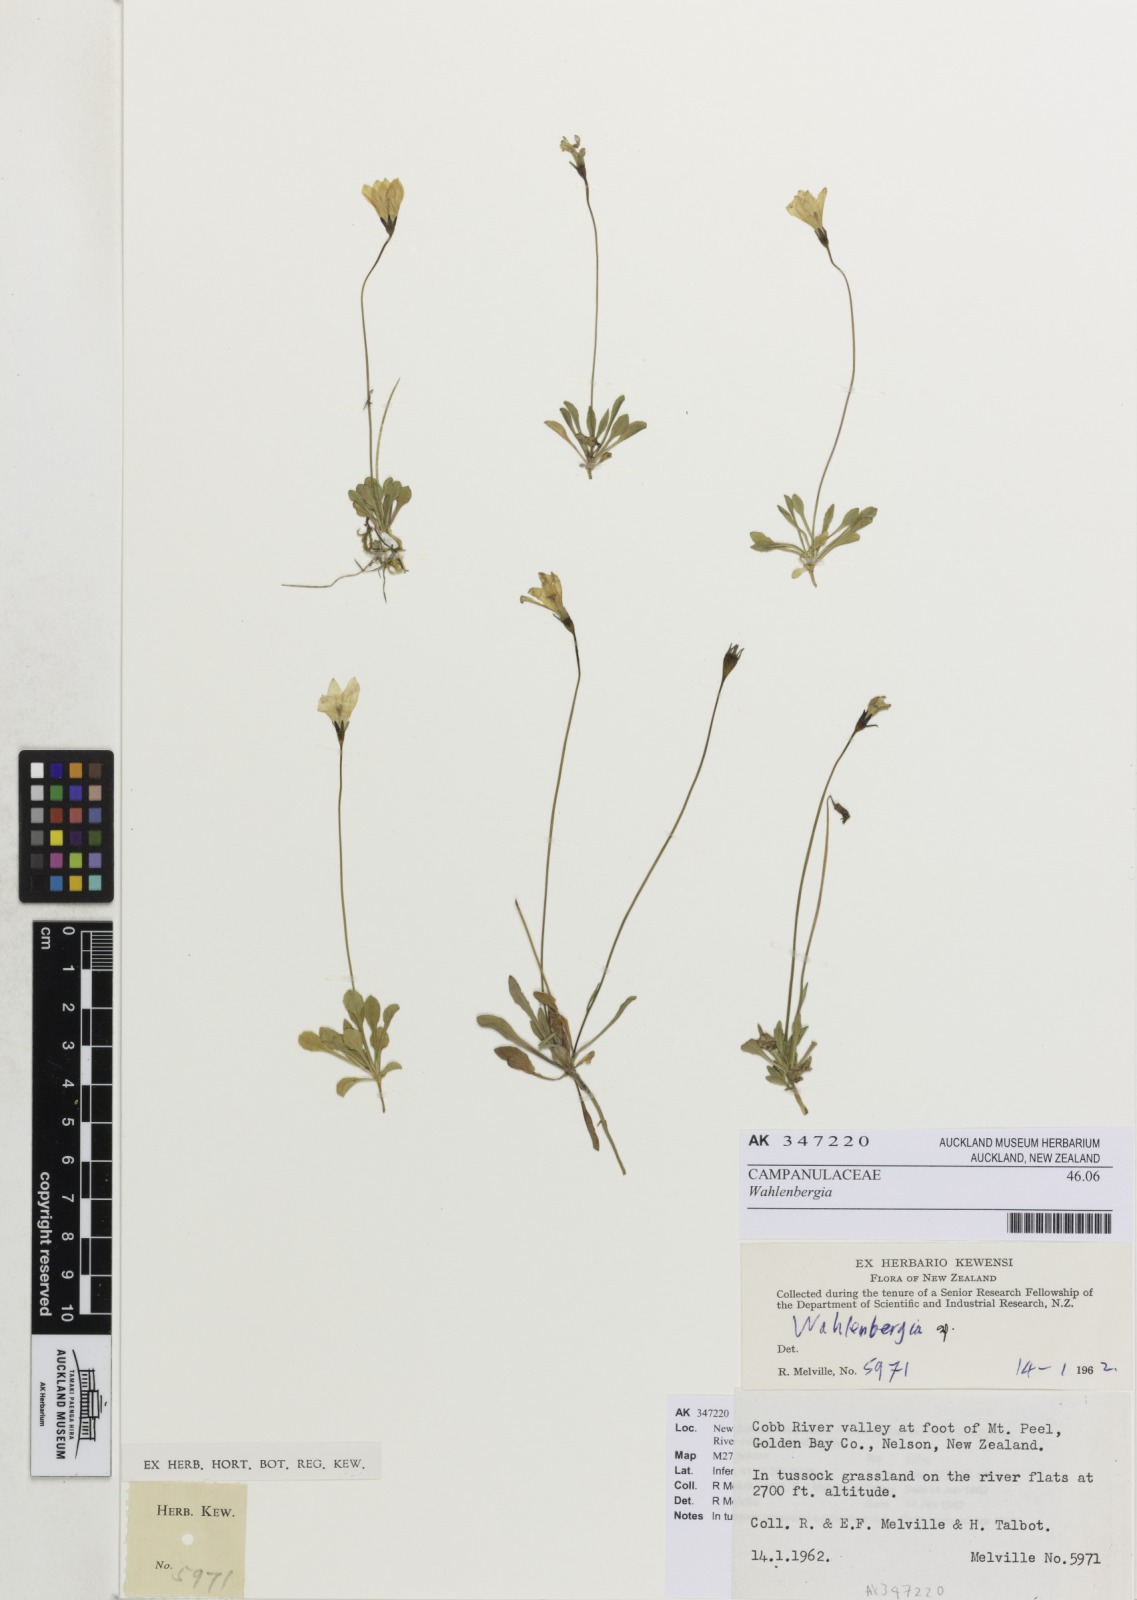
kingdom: Plantae
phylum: Tracheophyta
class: Magnoliopsida
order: Asterales
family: Campanulaceae
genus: Wahlenbergia
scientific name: Wahlenbergia
